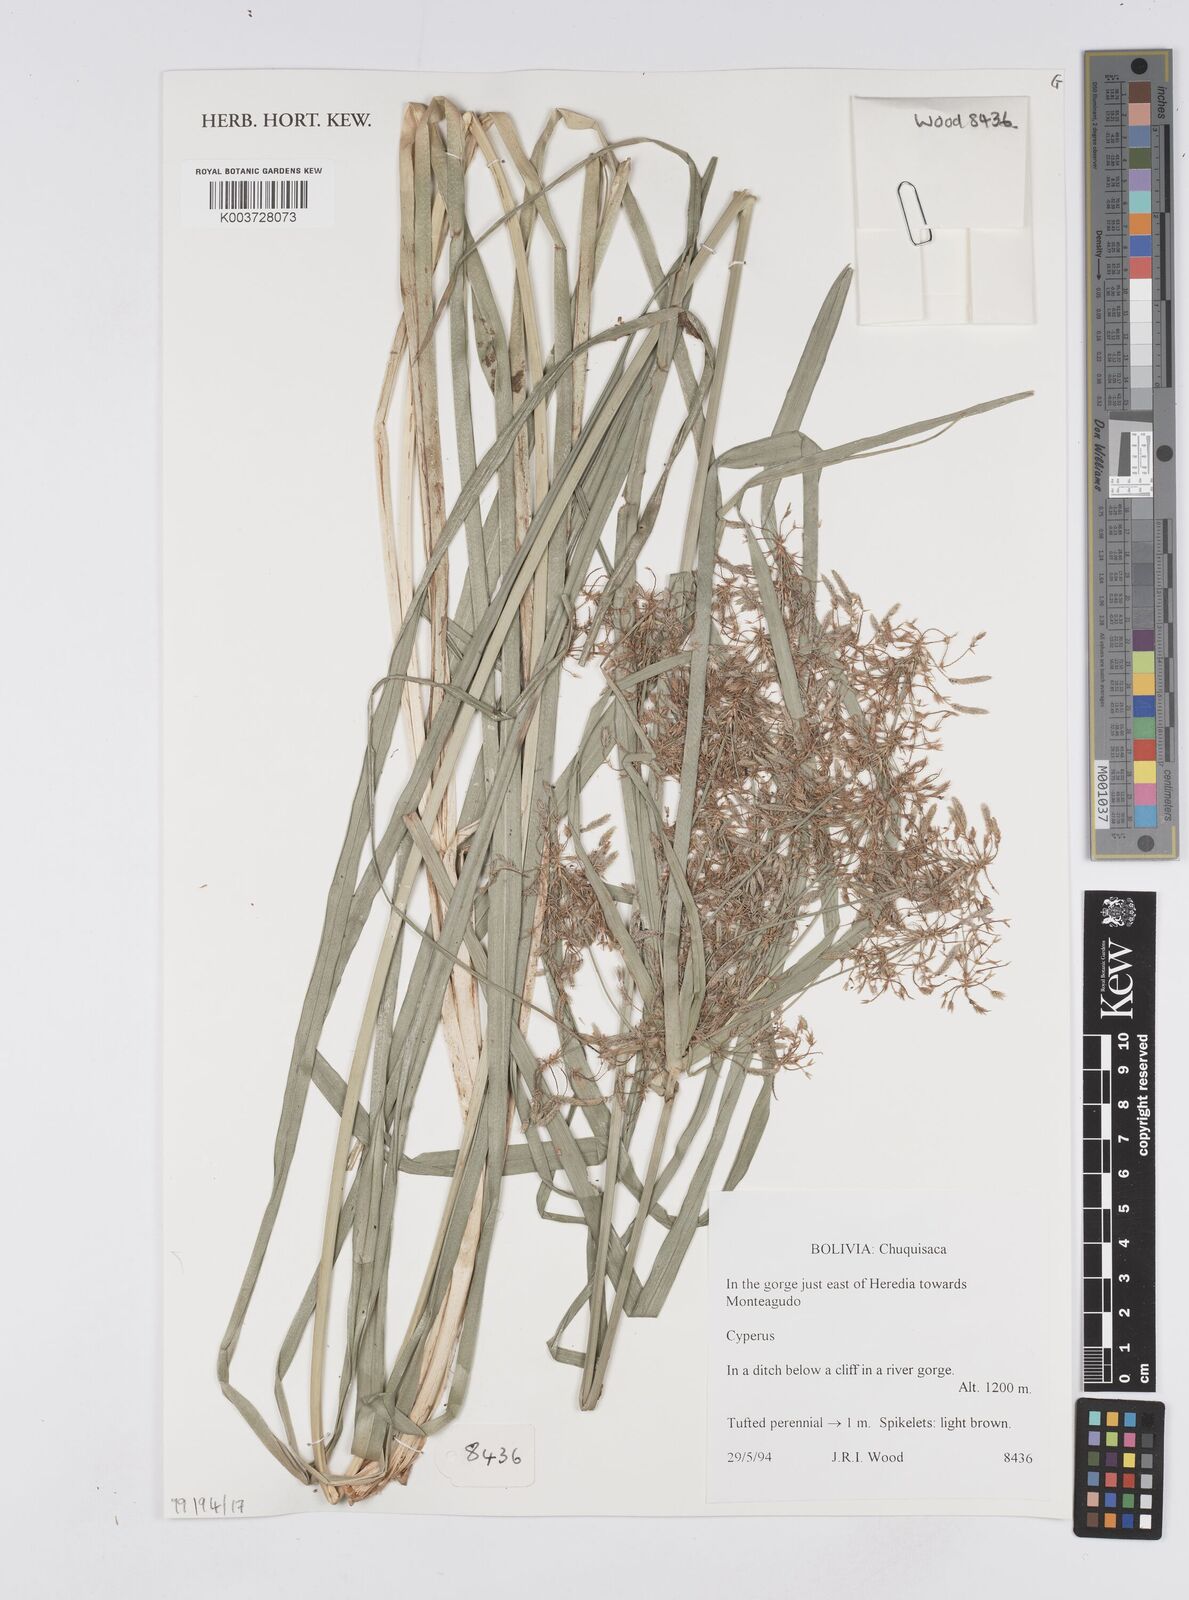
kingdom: Plantae
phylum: Tracheophyta
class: Liliopsida
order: Poales
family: Cyperaceae
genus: Cyperus
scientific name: Cyperus
